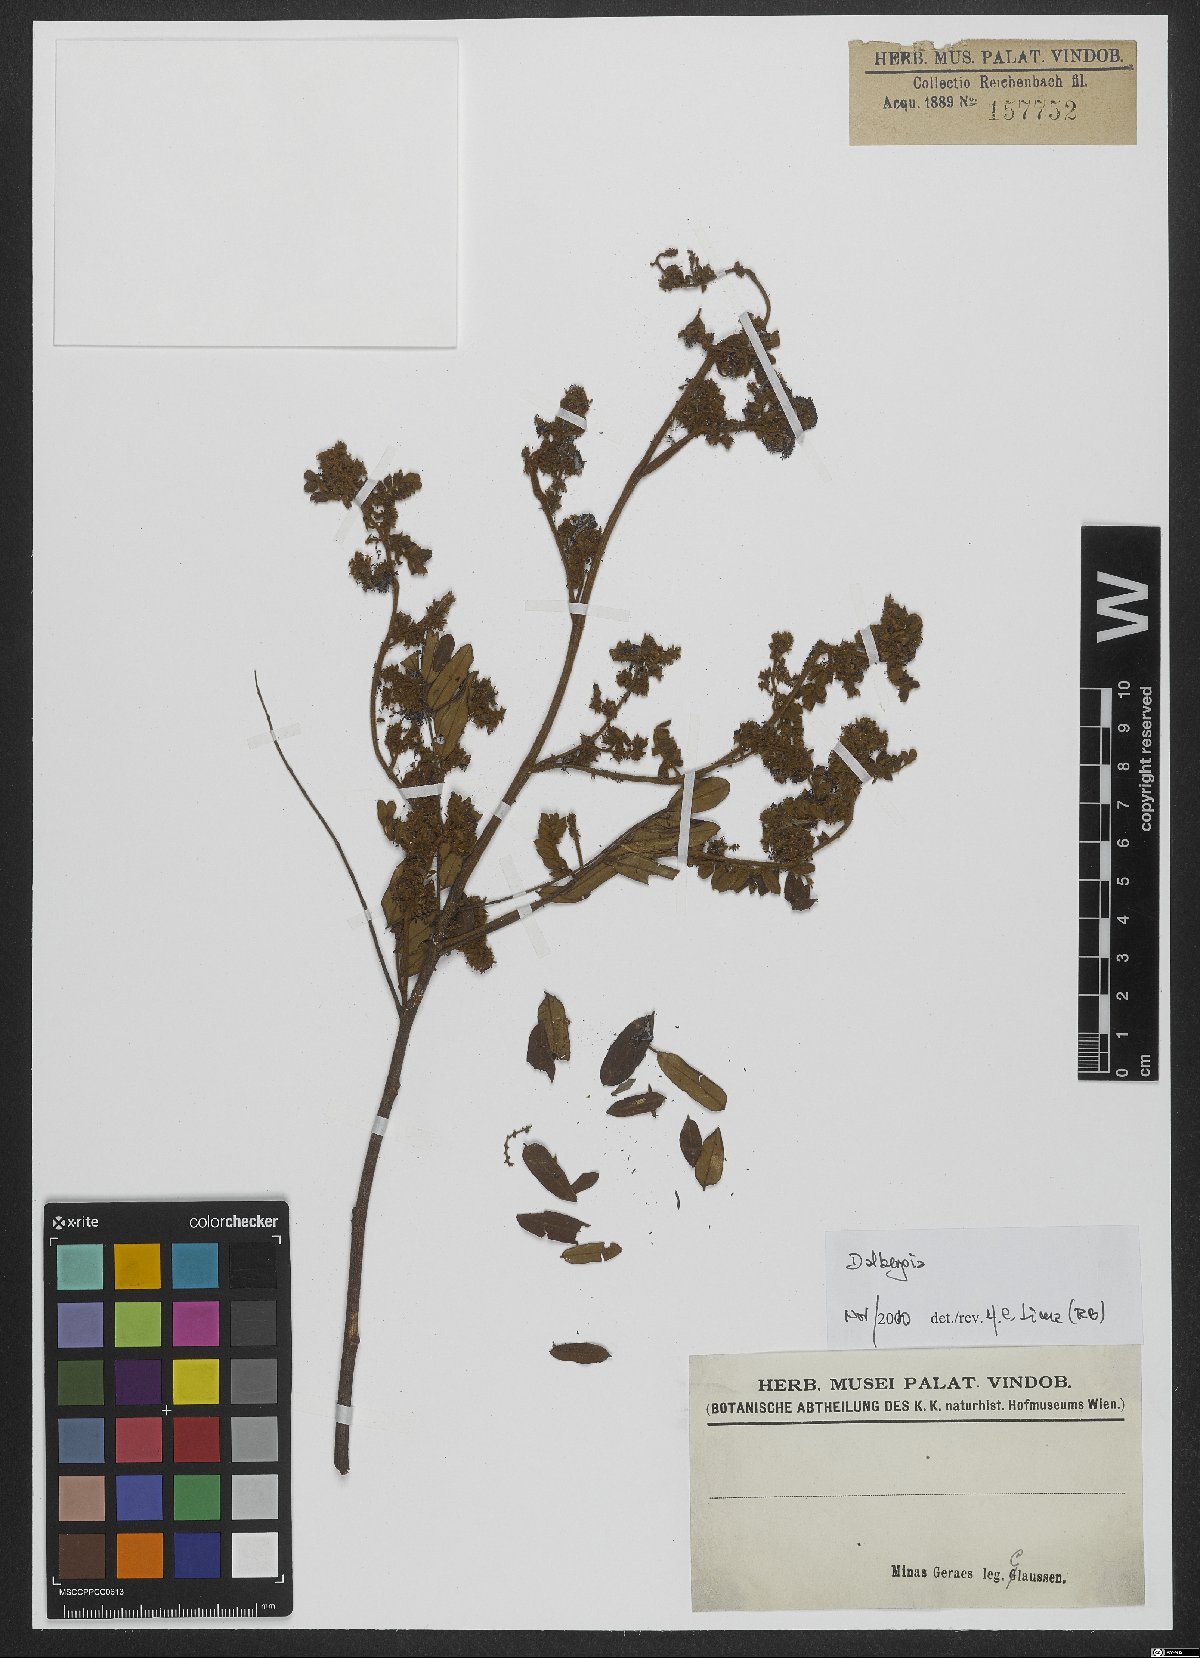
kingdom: Plantae
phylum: Tracheophyta
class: Magnoliopsida
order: Fabales
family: Fabaceae
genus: Dalbergia
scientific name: Dalbergia
